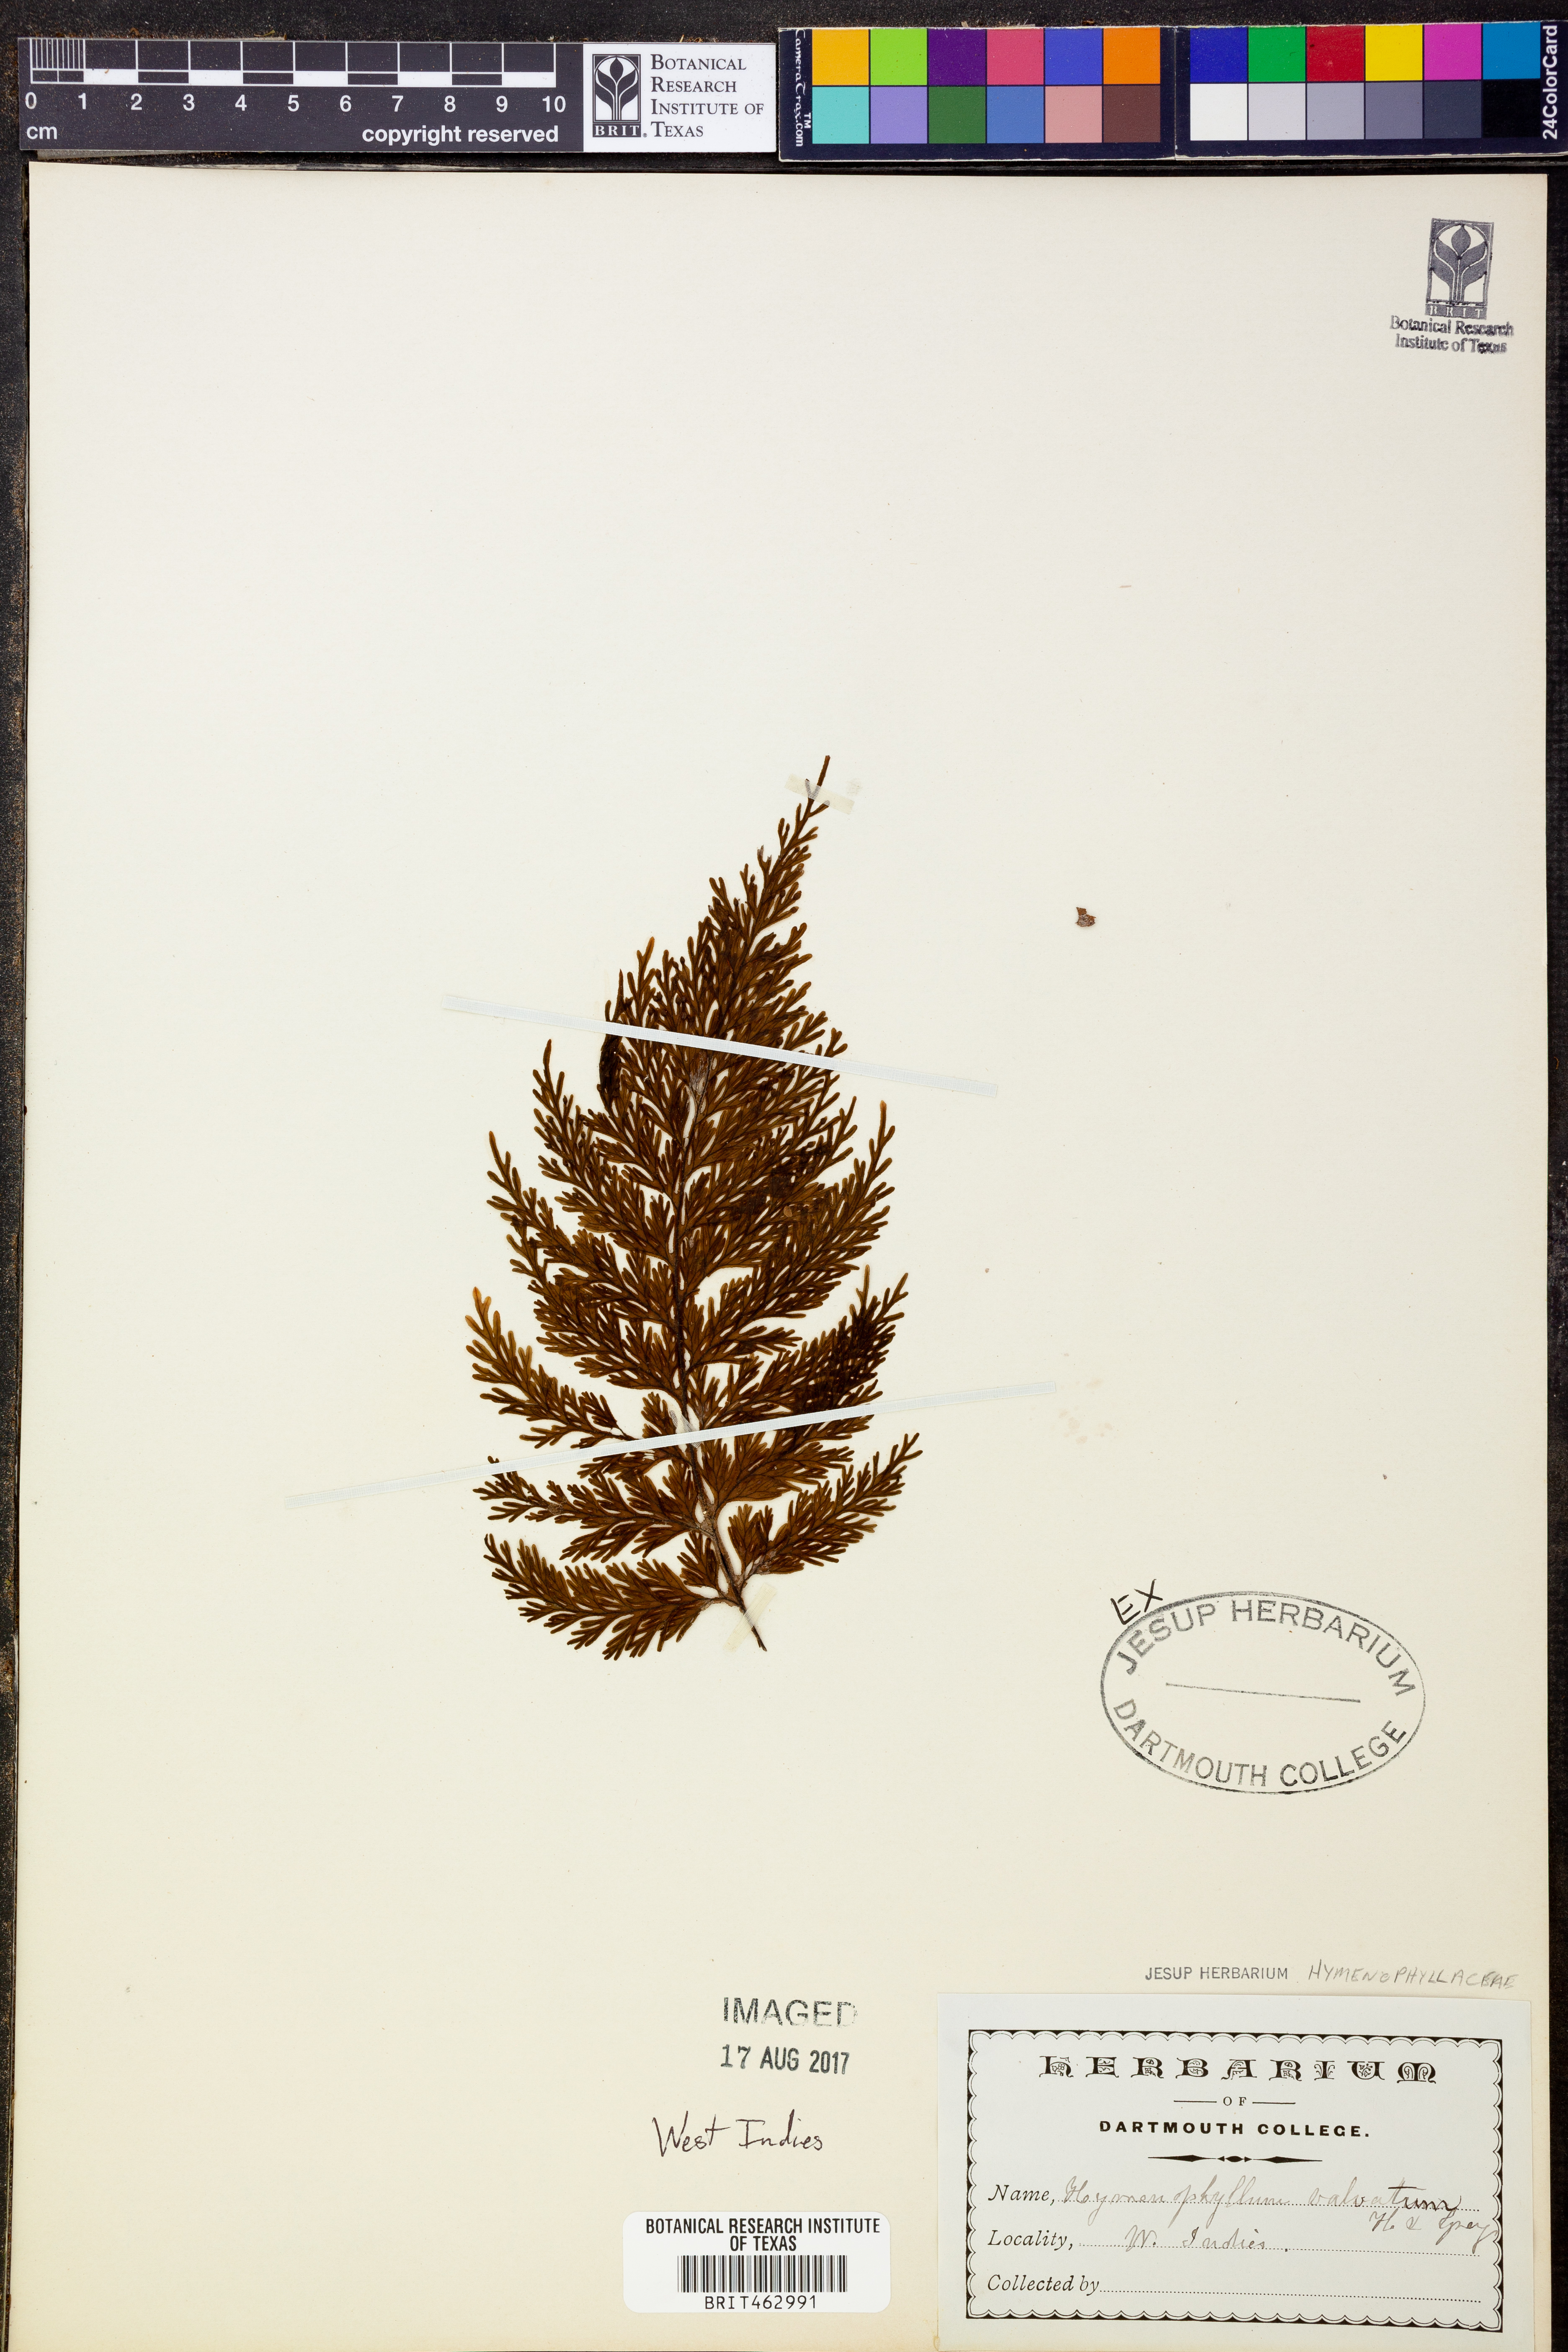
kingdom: Plantae
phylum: Tracheophyta
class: Polypodiopsida
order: Hymenophyllales
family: Hymenophyllaceae
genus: Hymenophyllum
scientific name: Hymenophyllum valvatum
